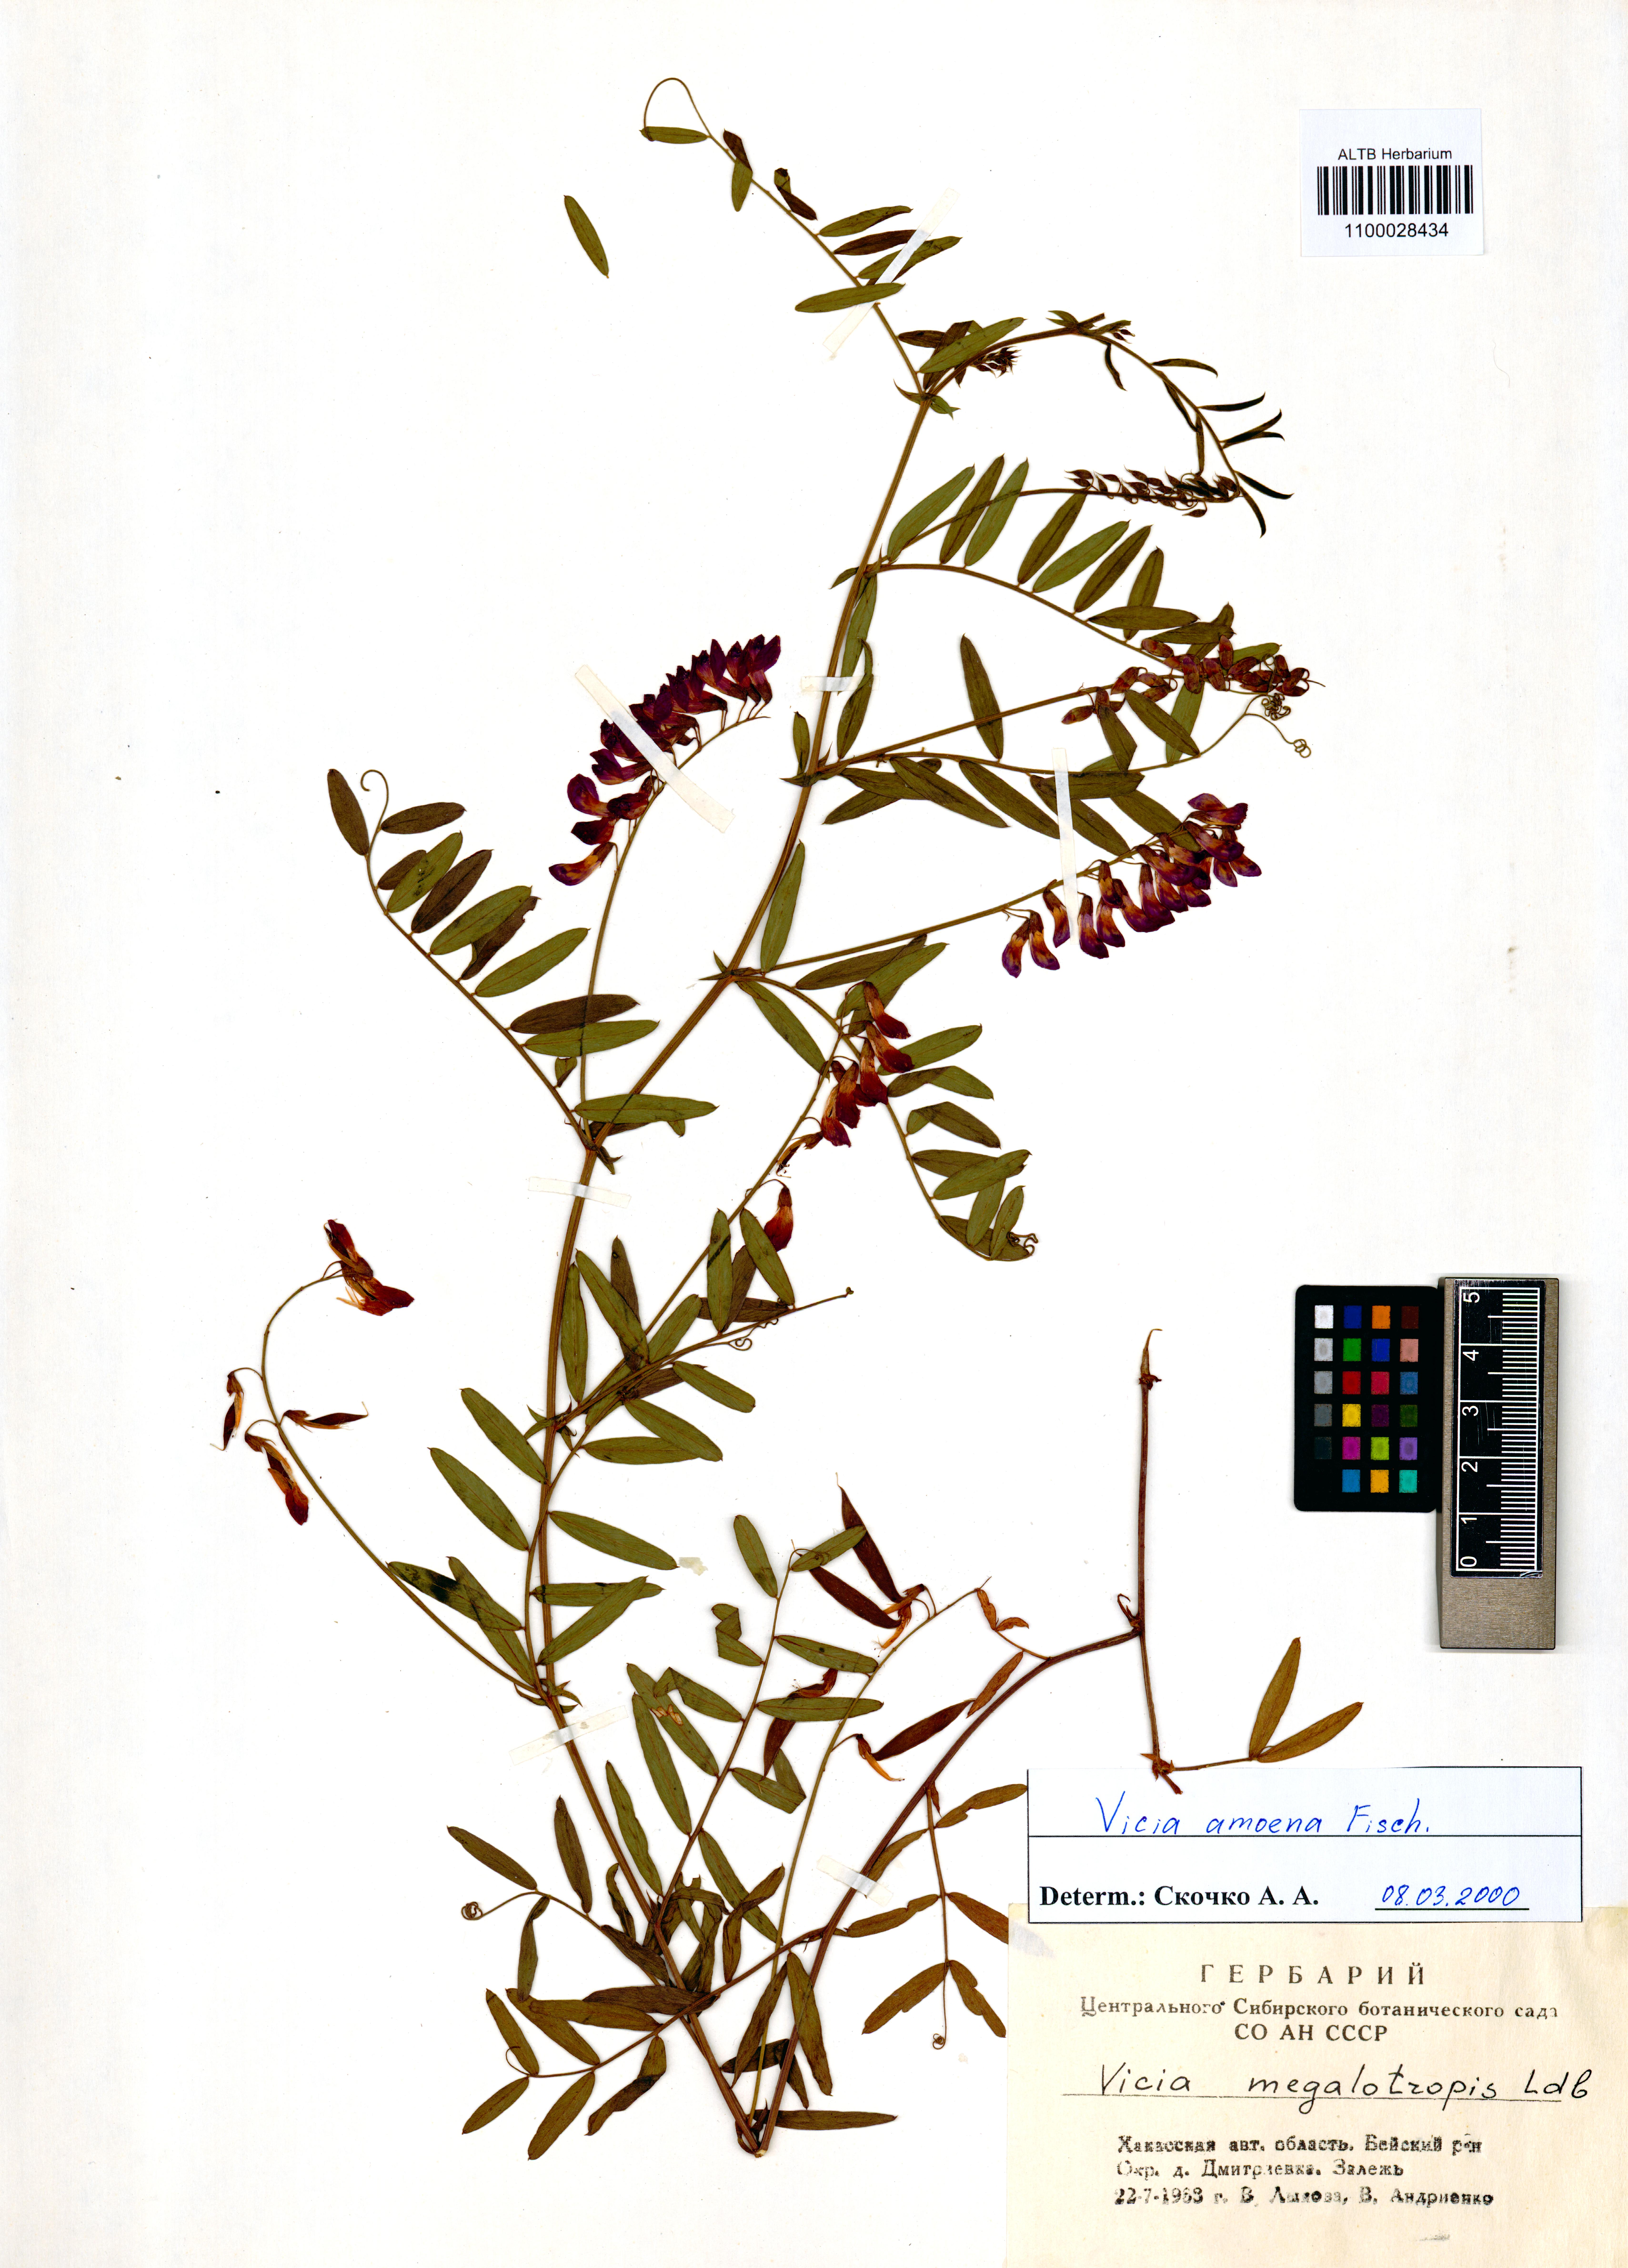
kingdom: Plantae
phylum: Tracheophyta
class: Magnoliopsida
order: Fabales
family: Fabaceae
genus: Vicia
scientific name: Vicia amoena
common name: Cheder ebs
